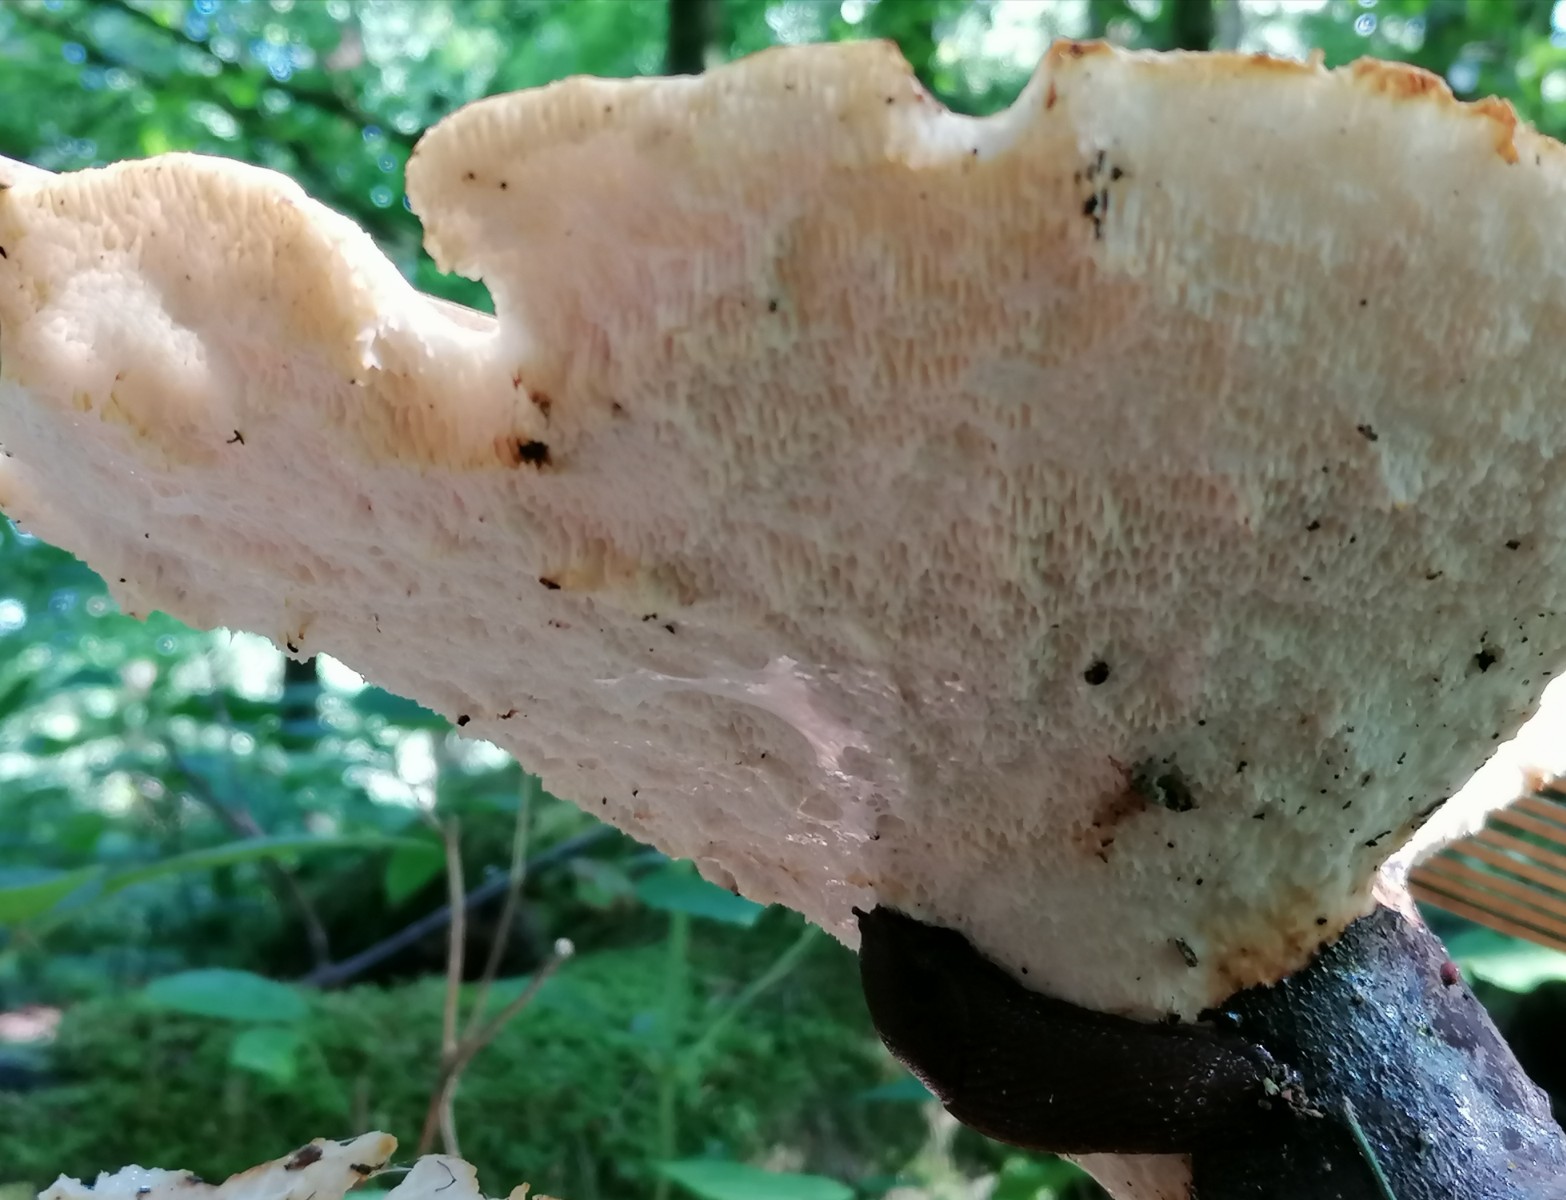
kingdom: Fungi
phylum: Basidiomycota
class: Agaricomycetes
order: Polyporales
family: Polyporaceae
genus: Cerioporus
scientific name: Cerioporus squamosus
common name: skællet stilkporesvamp
